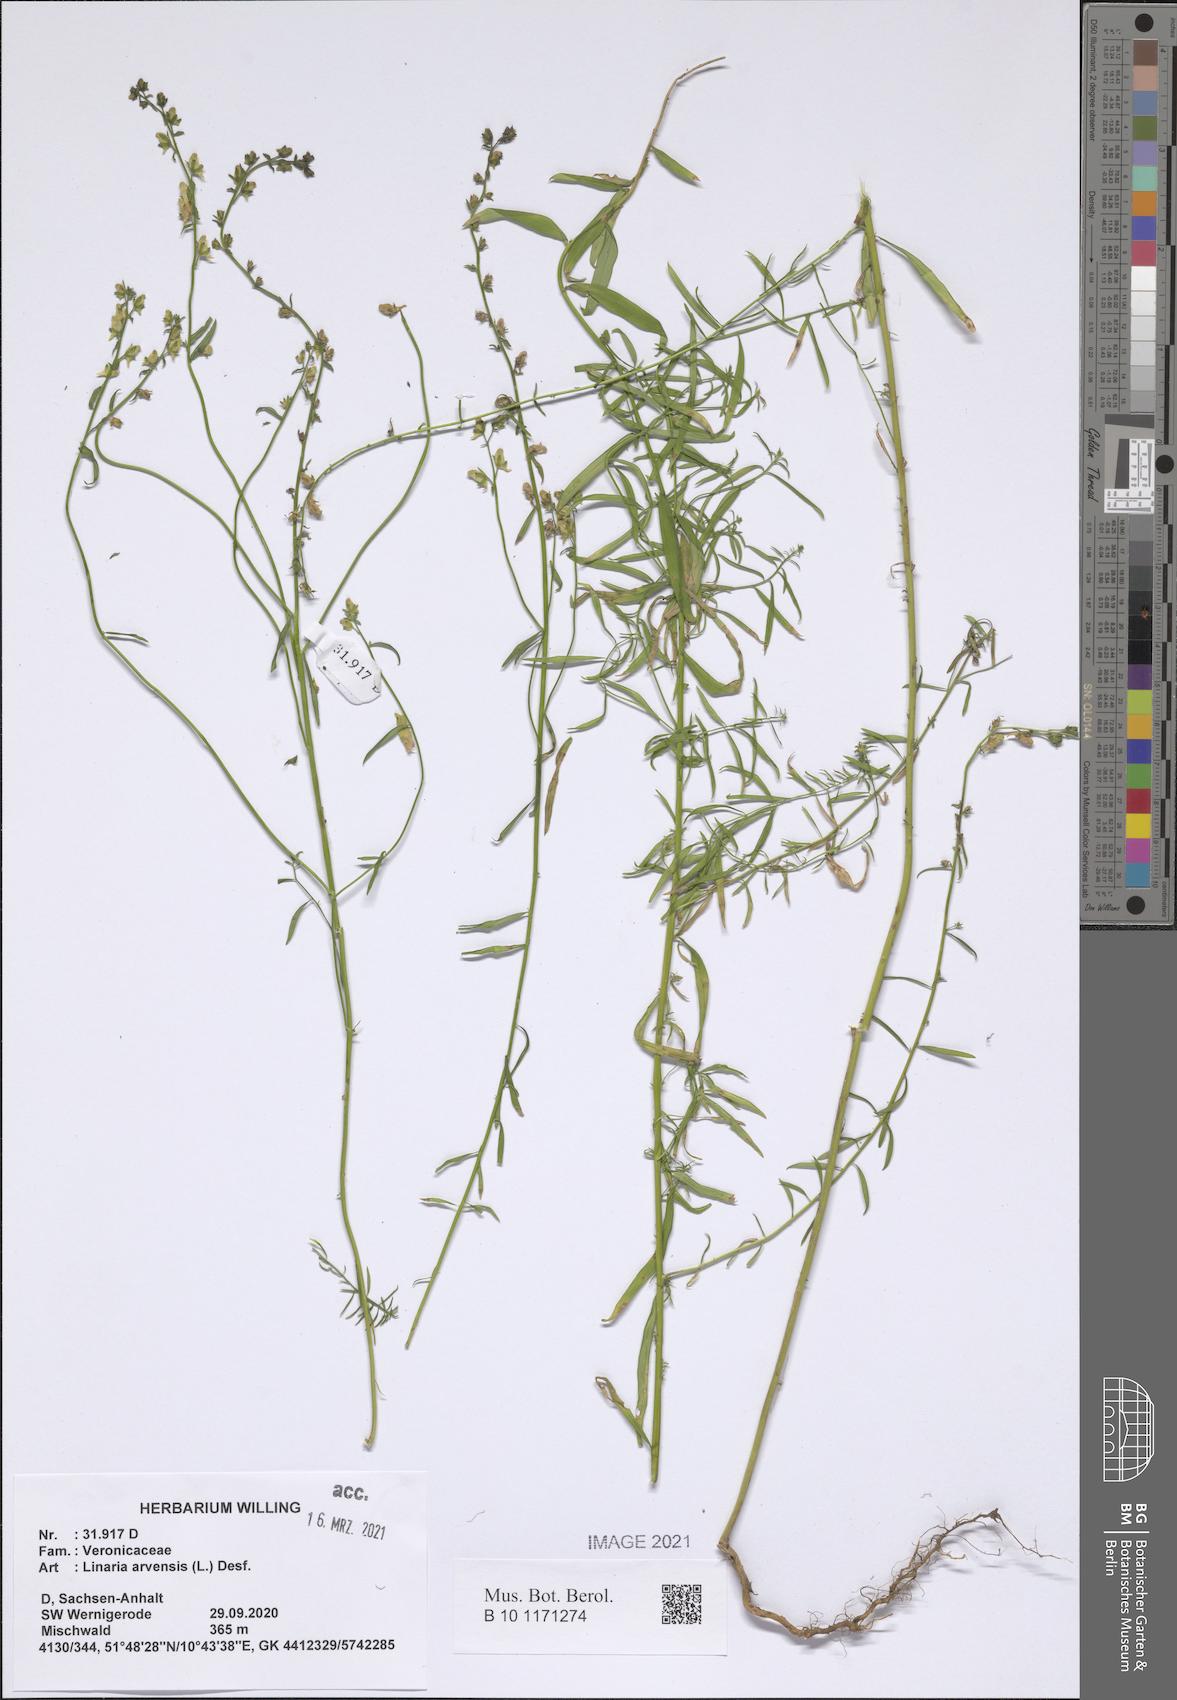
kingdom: Plantae
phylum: Tracheophyta
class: Magnoliopsida
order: Lamiales
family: Plantaginaceae
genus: Linaria
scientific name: Linaria arvensis
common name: Corn toadflax
